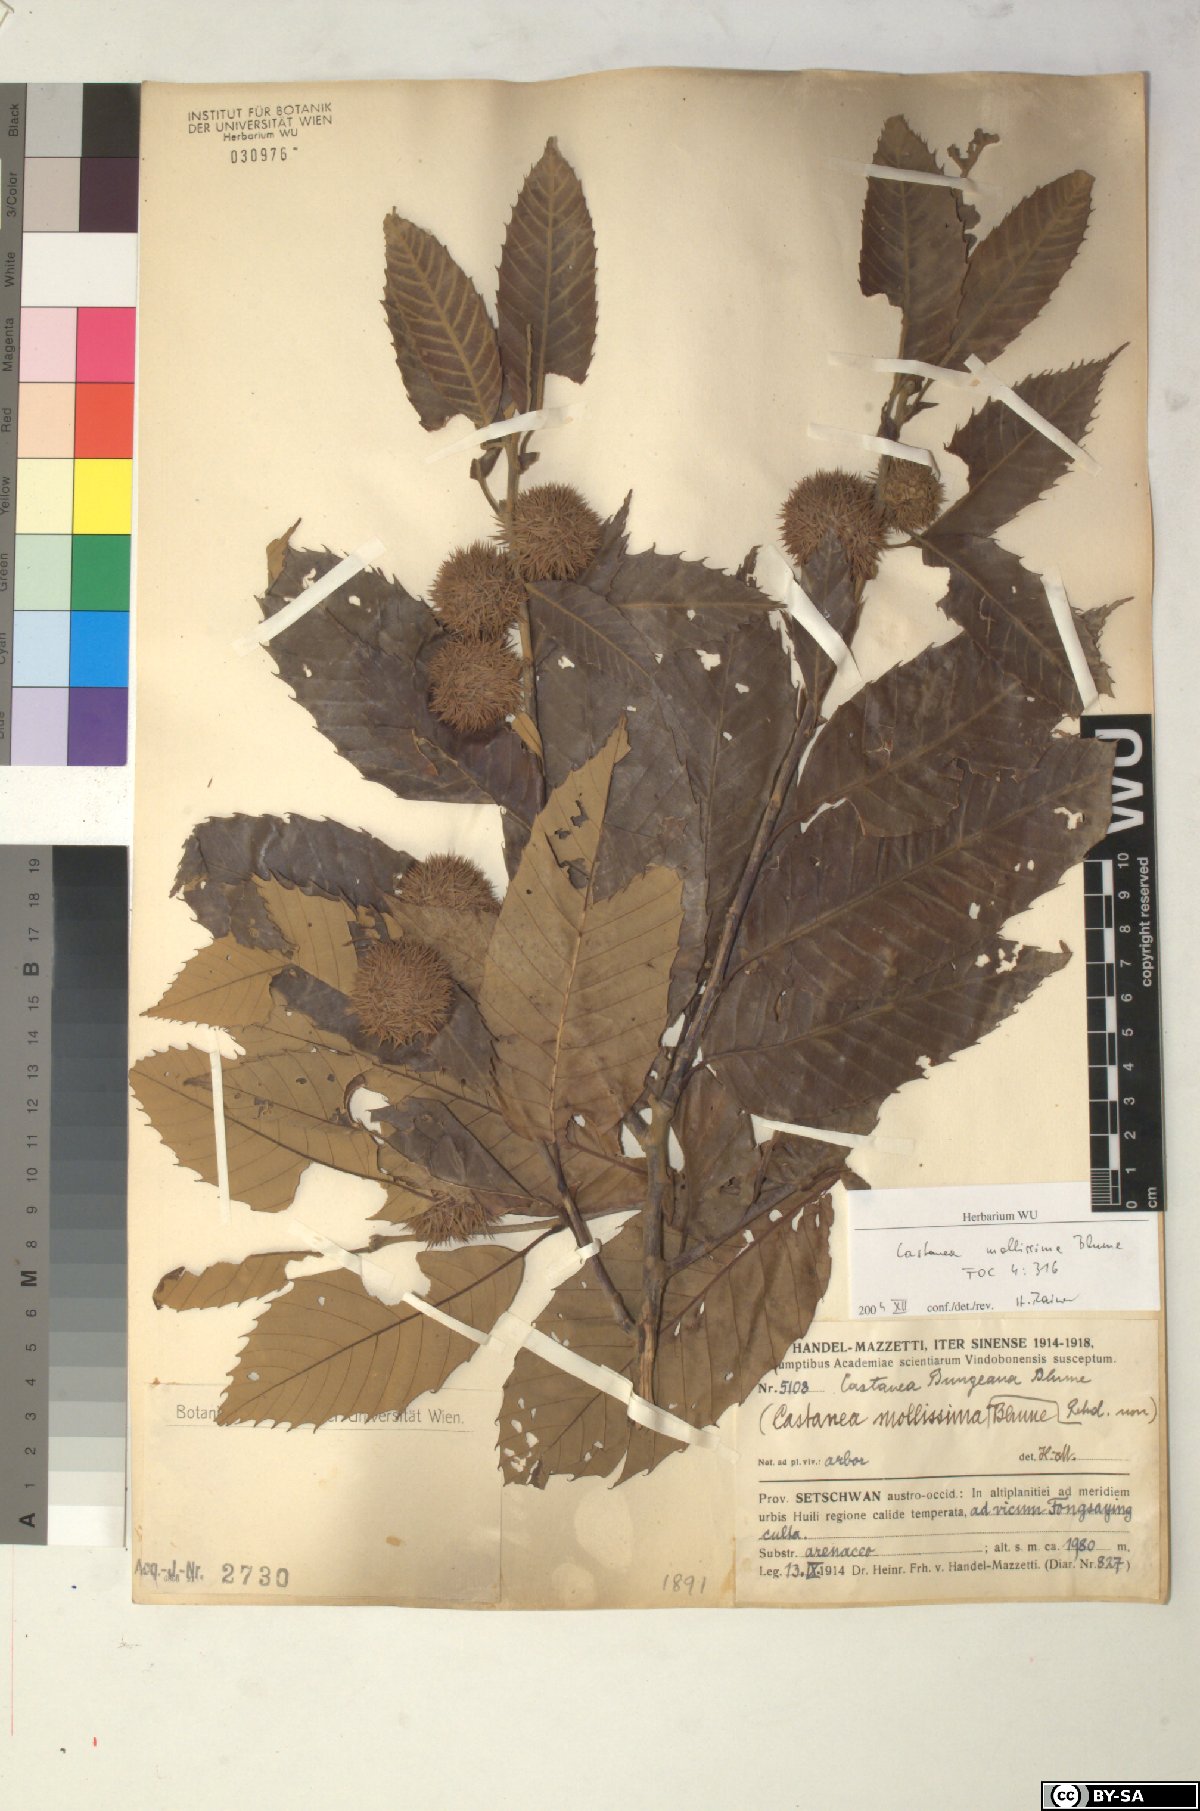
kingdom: Plantae
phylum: Tracheophyta
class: Magnoliopsida
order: Fagales
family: Fagaceae
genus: Castanea
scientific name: Castanea mollissima
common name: Chinese chestnut
